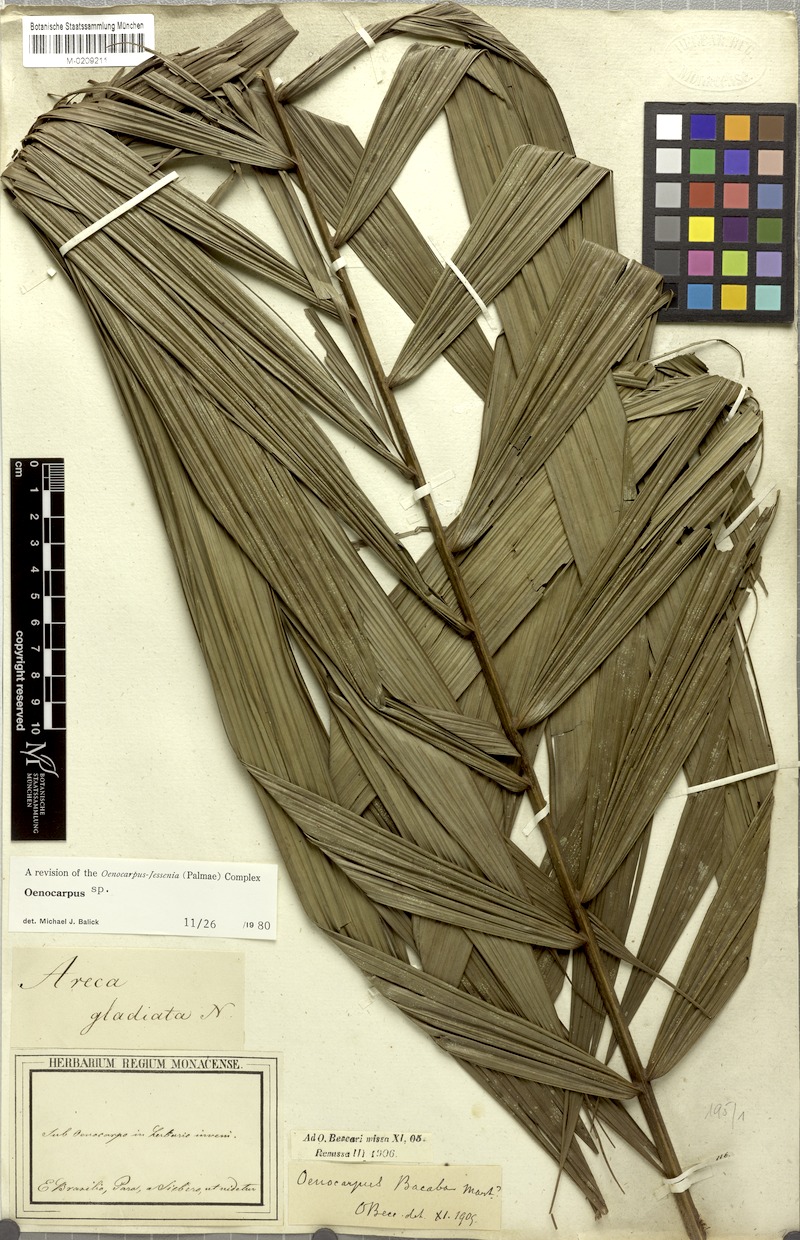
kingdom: Plantae
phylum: Tracheophyta
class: Liliopsida
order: Arecales
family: Arecaceae
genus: Oenocarpus
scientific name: Oenocarpus
